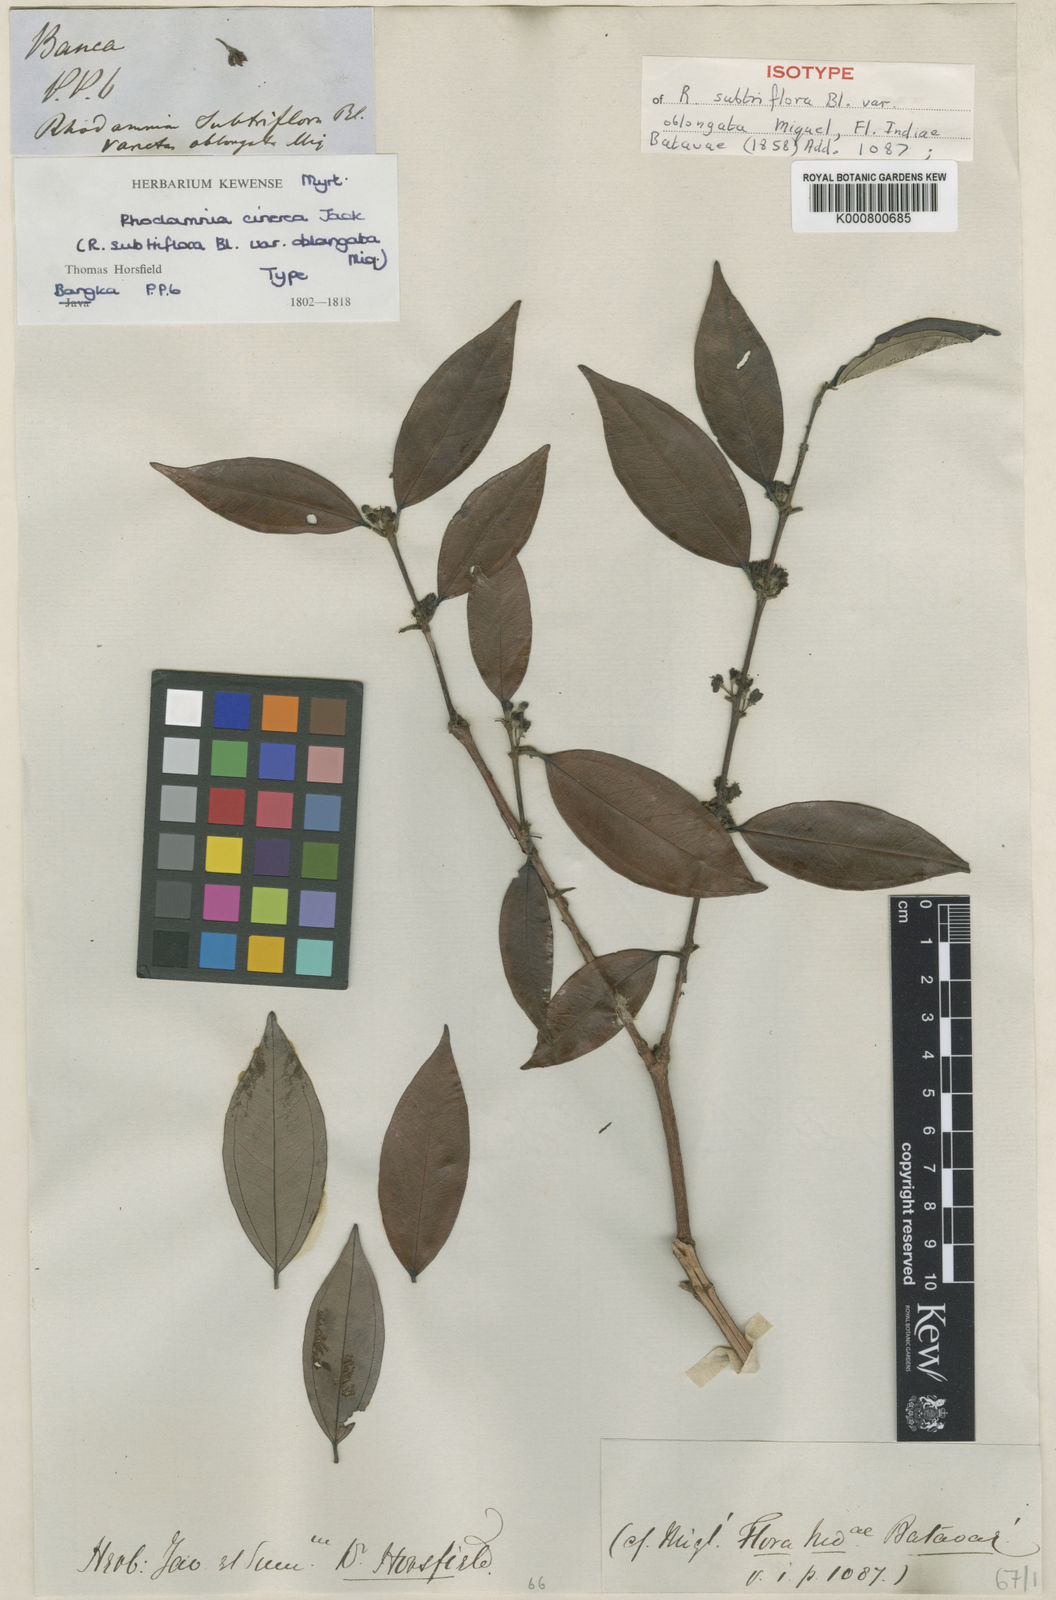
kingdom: Plantae
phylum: Tracheophyta
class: Magnoliopsida
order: Myrtales
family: Myrtaceae
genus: Rhodamnia
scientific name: Rhodamnia cinerea
